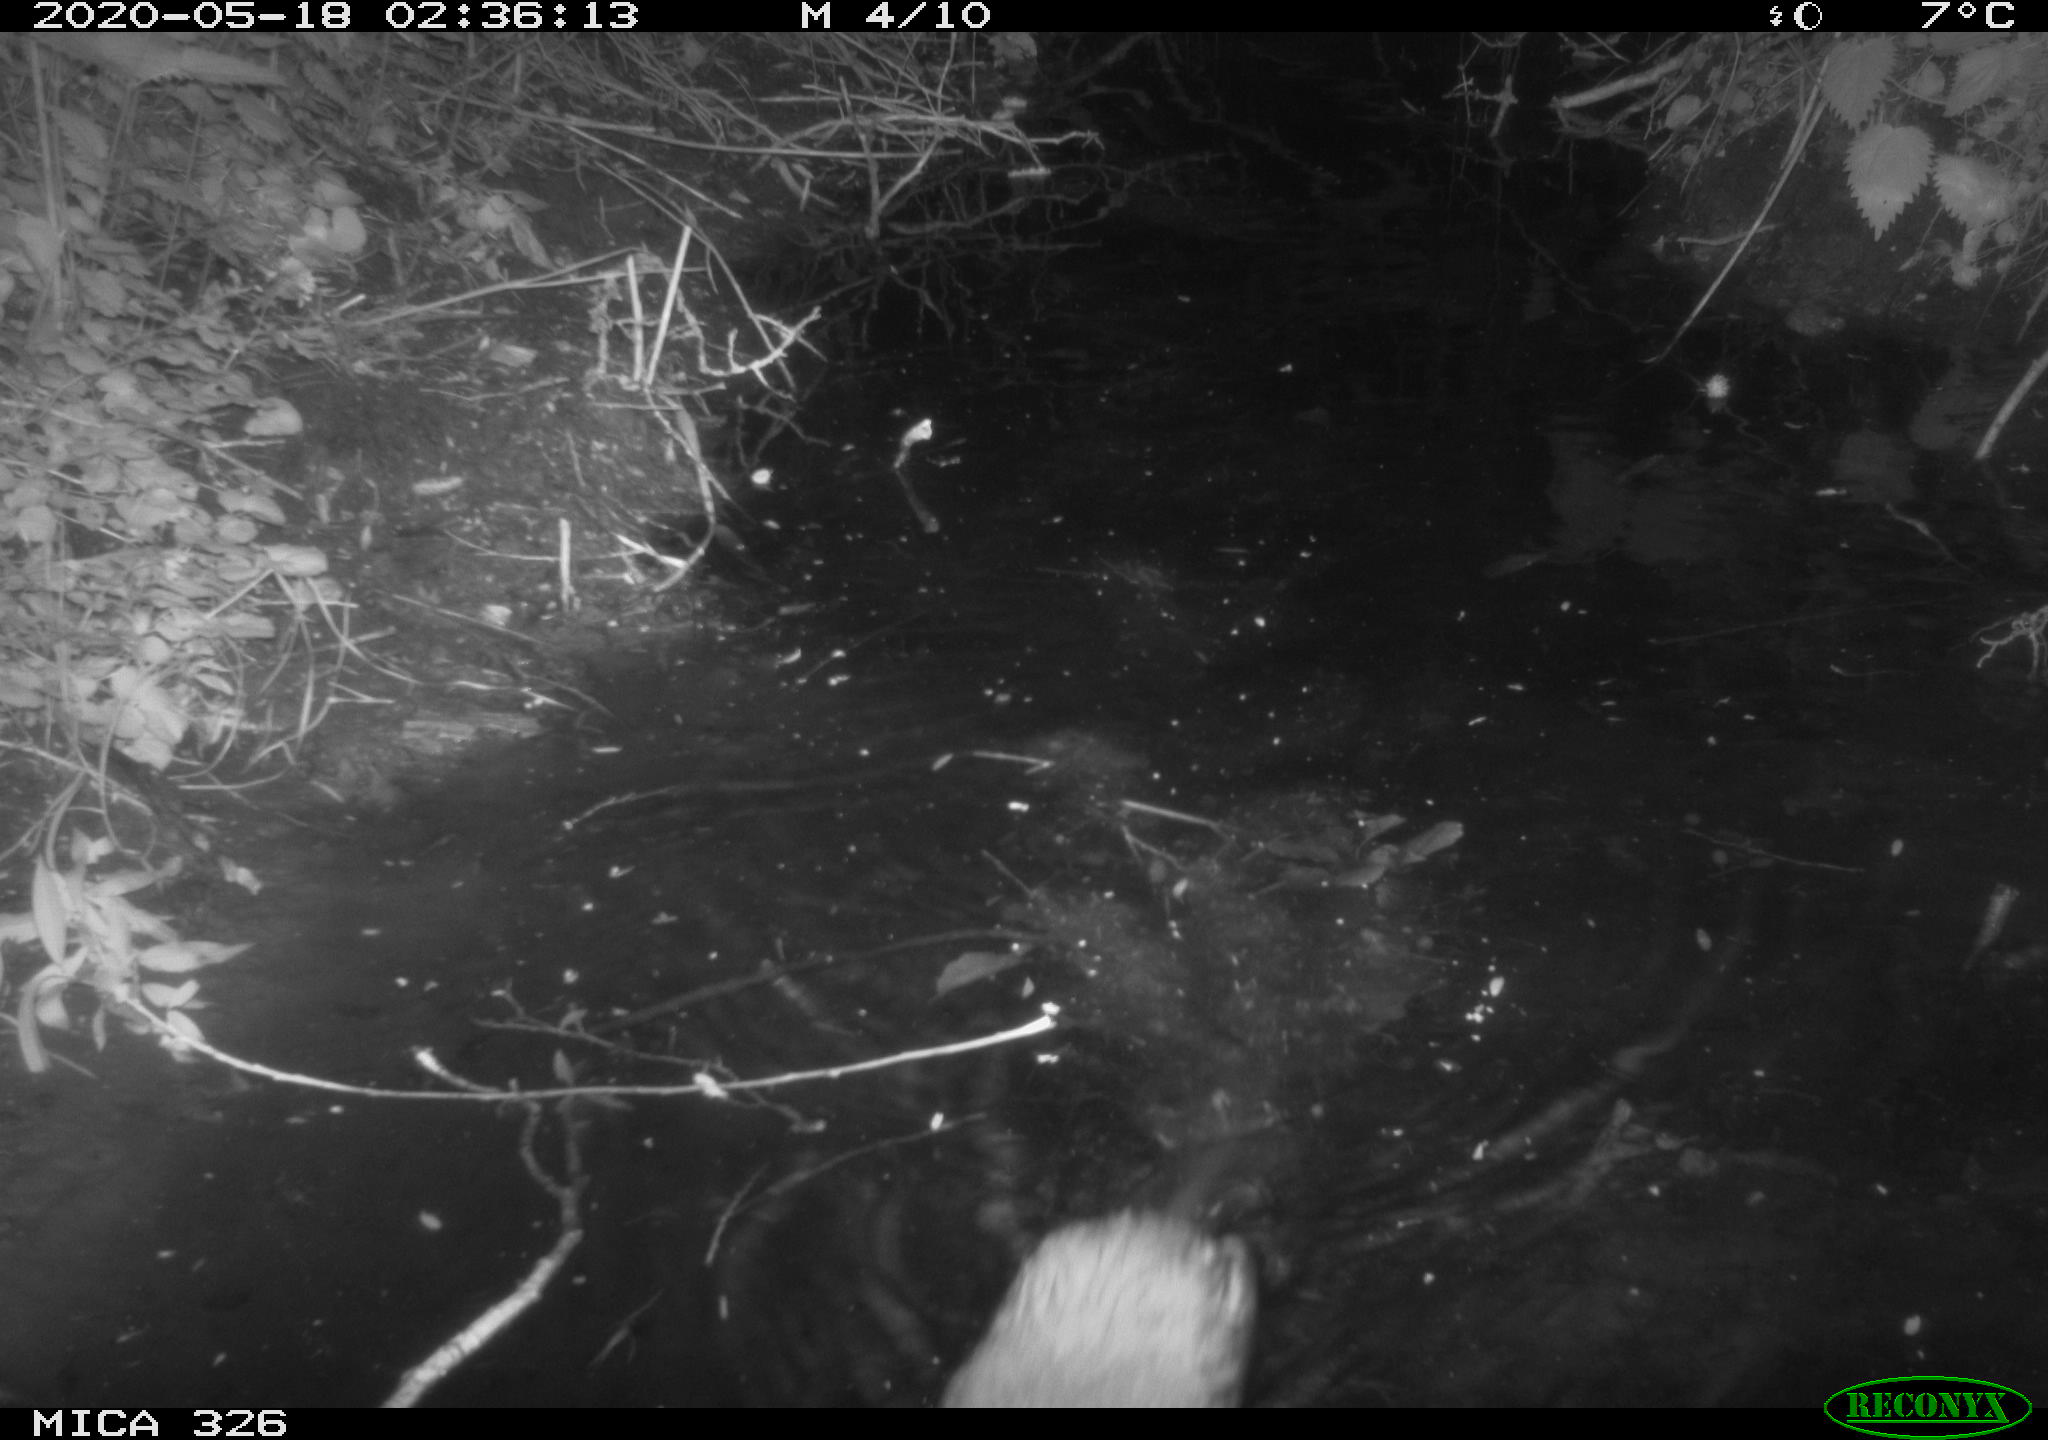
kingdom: Animalia
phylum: Chordata
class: Mammalia
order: Rodentia
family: Myocastoridae
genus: Myocastor
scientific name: Myocastor coypus
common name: Coypu
